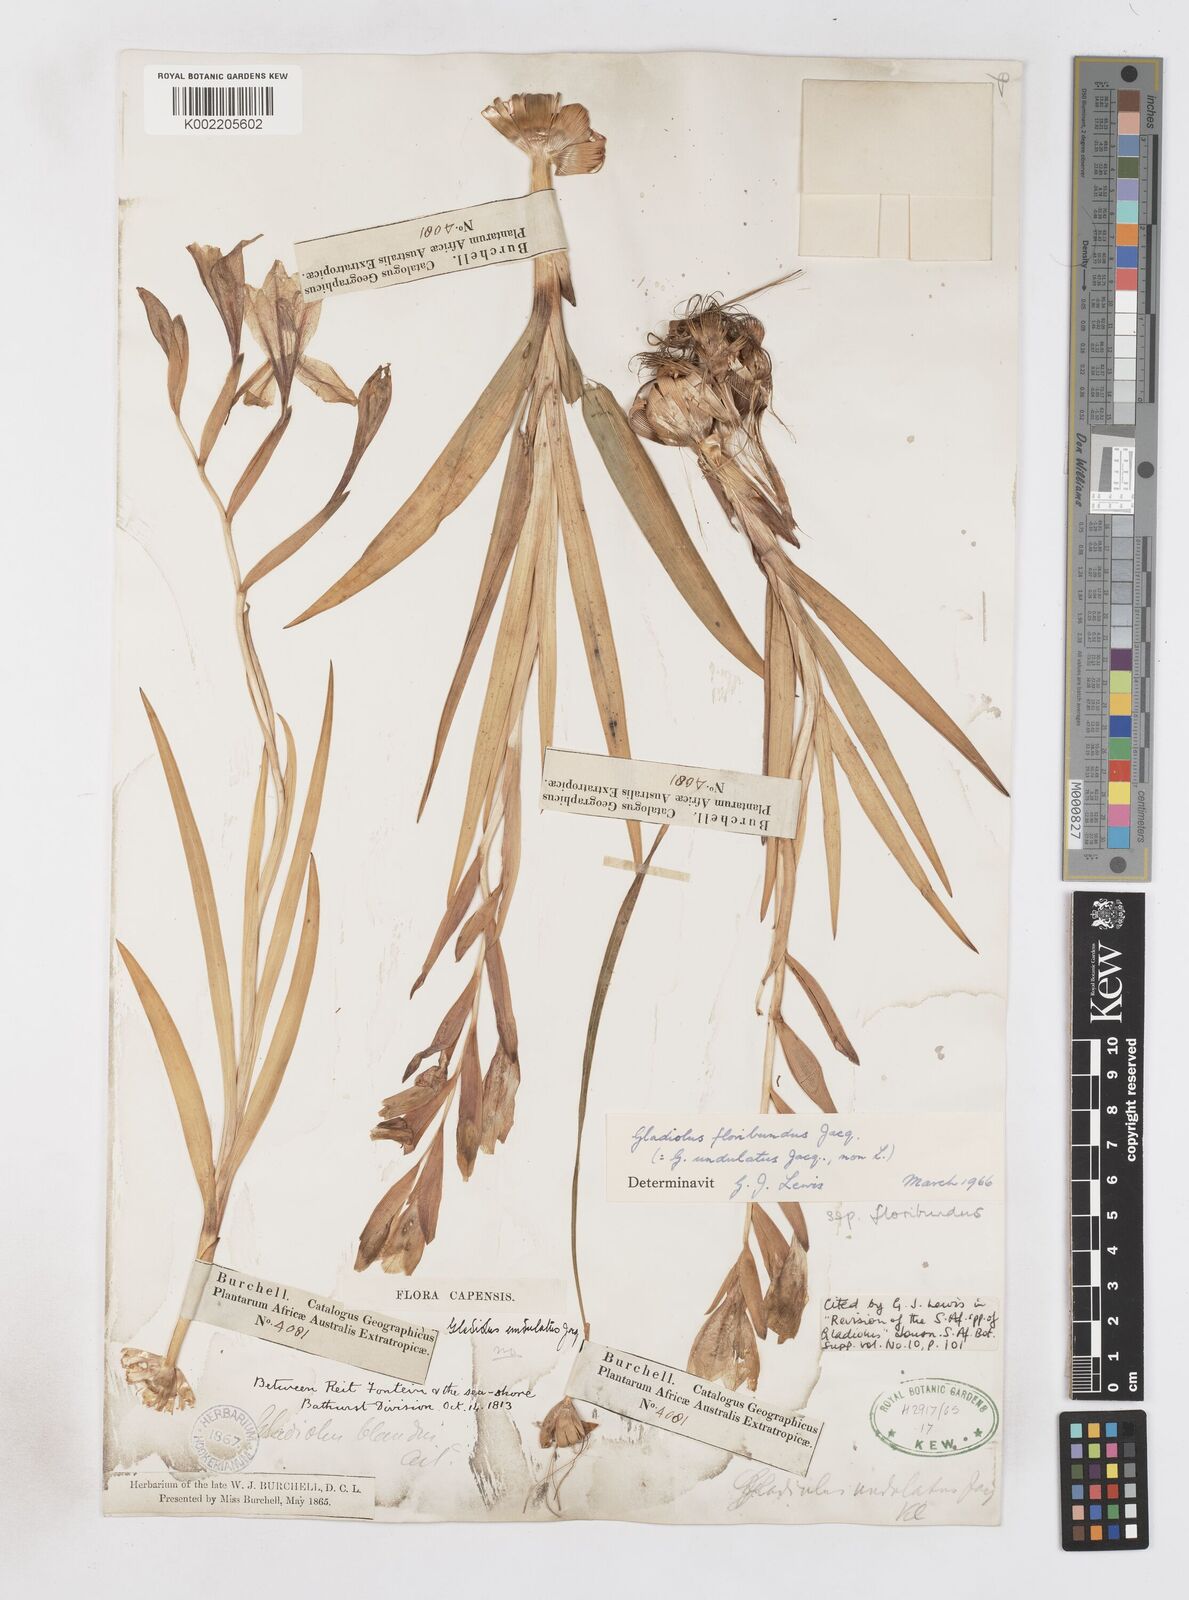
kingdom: Plantae
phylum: Tracheophyta
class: Liliopsida
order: Asparagales
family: Iridaceae
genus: Gladiolus
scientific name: Gladiolus floribundus
